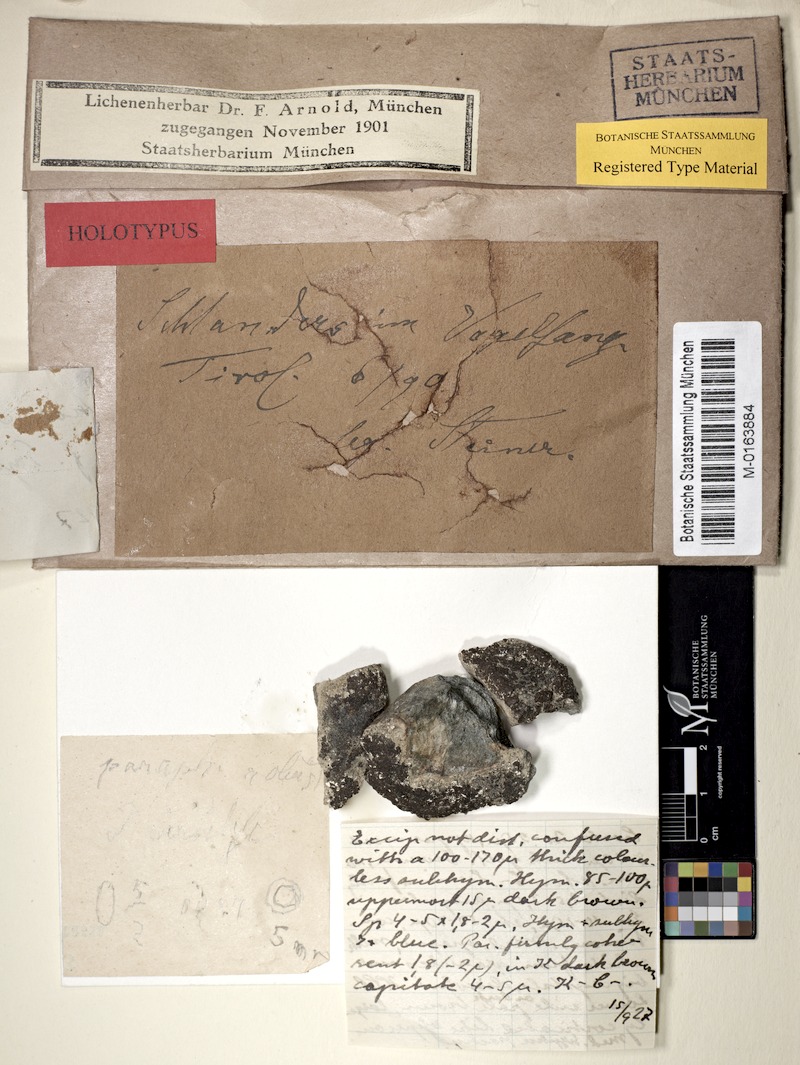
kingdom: Fungi
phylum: Ascomycota
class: Lecanoromycetes
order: Acarosporales
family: Acarosporaceae
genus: Acarospora
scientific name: Acarospora suzai
